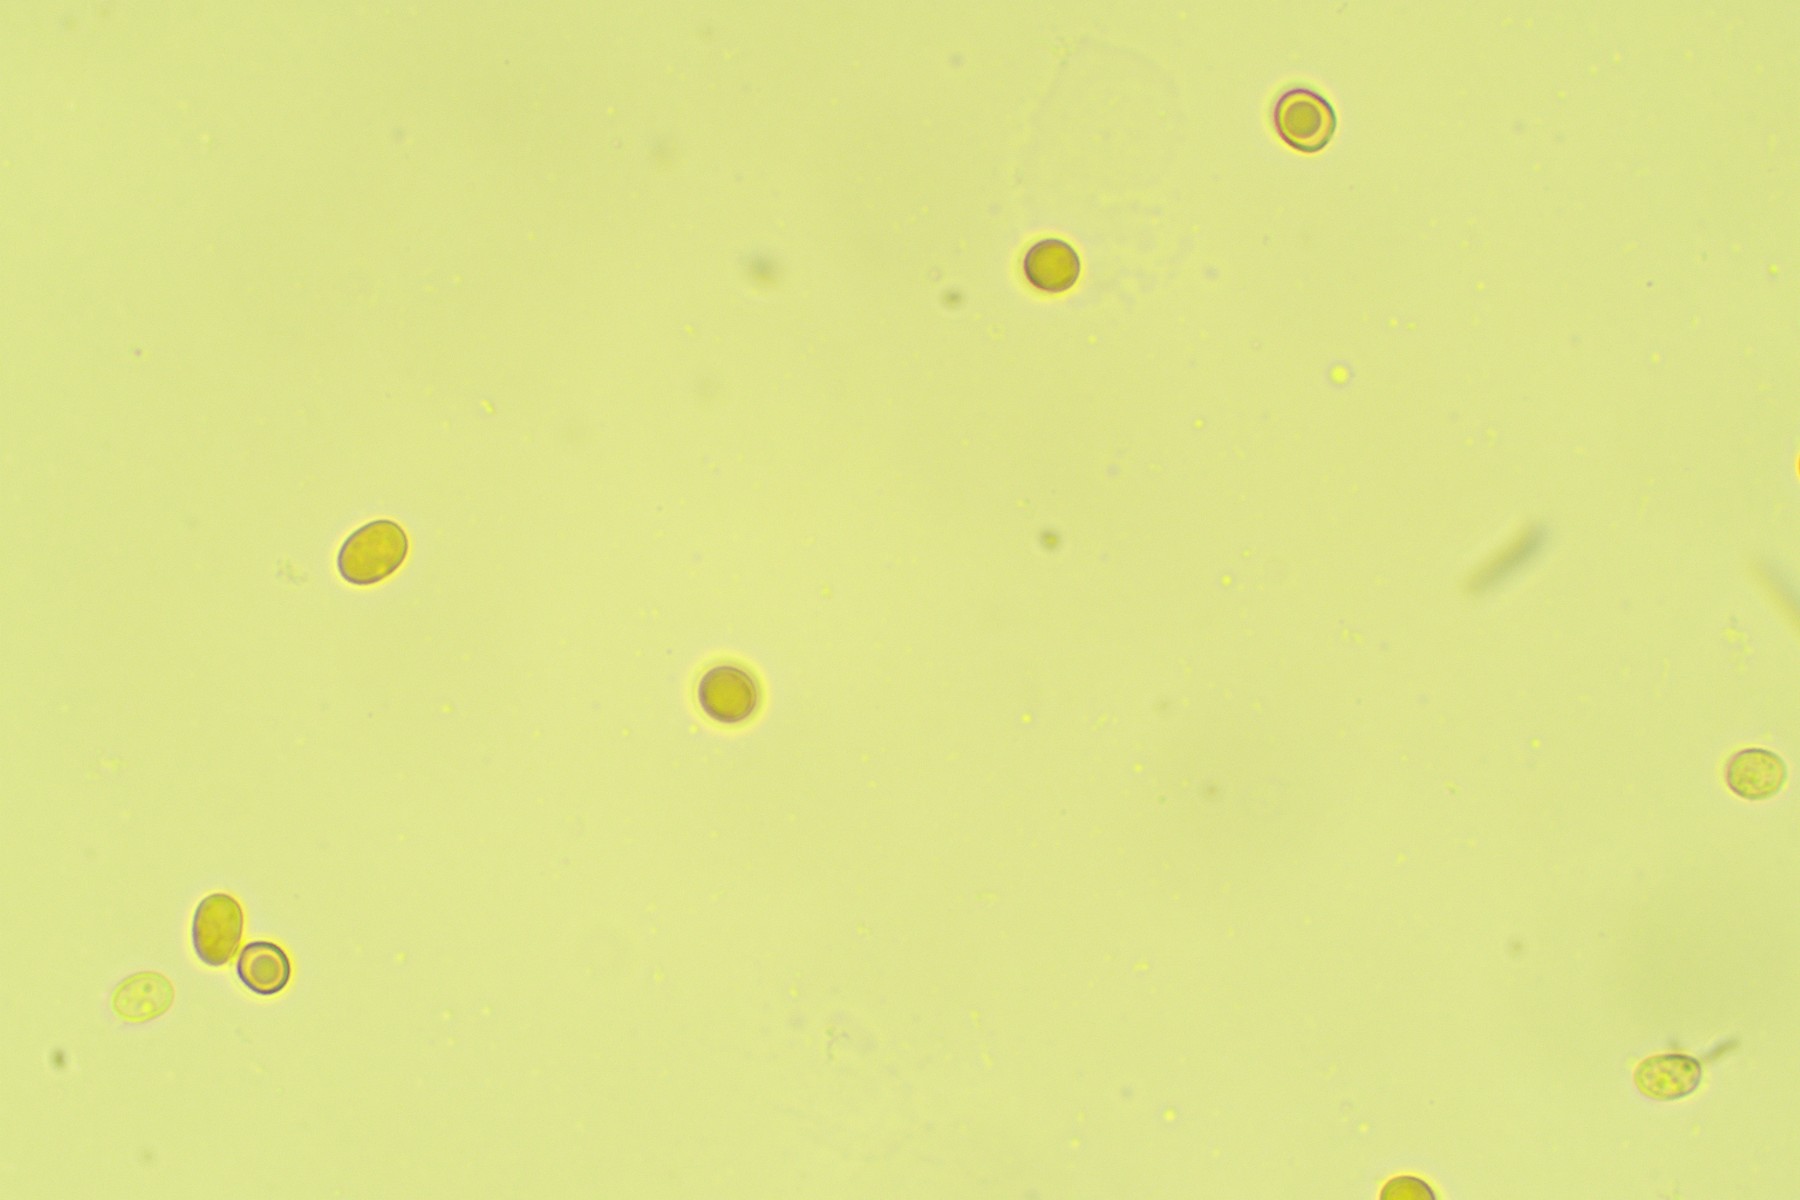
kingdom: Fungi
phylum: Basidiomycota
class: Agaricomycetes
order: Boletales
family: Hygrophoropsidaceae
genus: Leucogyrophana
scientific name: Leucogyrophana
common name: hussvamp
